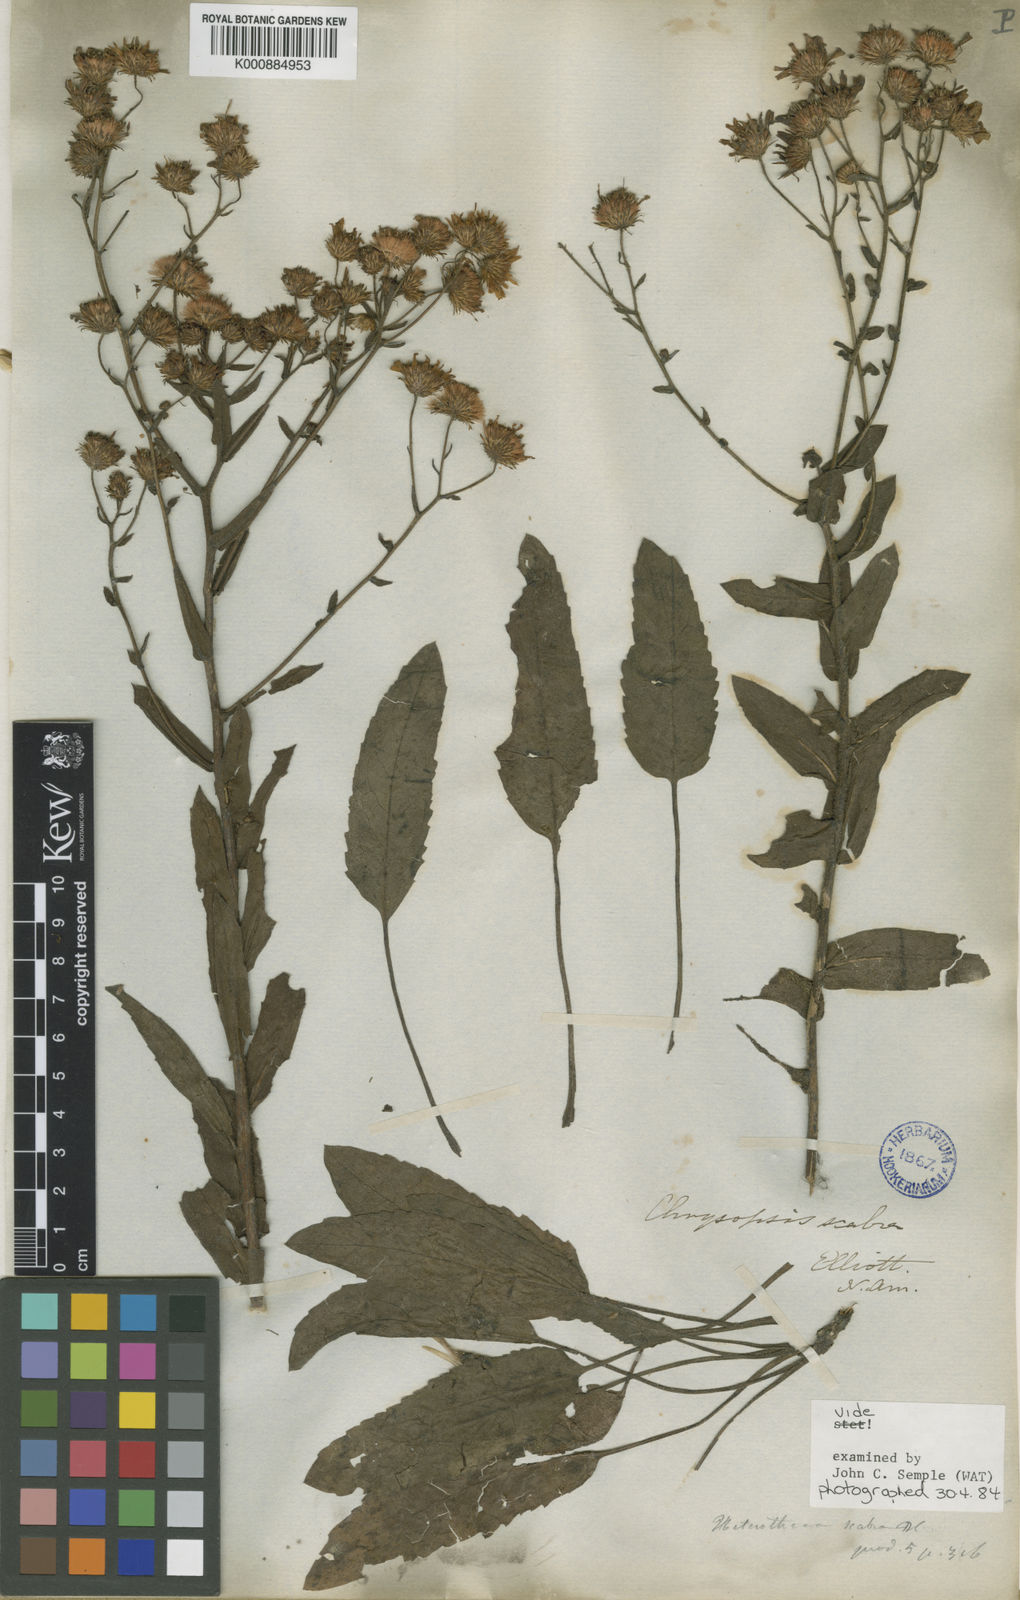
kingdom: Plantae
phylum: Tracheophyta
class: Magnoliopsida
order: Asterales
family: Asteraceae
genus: Heterotheca
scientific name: Heterotheca subaxillaris
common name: Camphorweed
